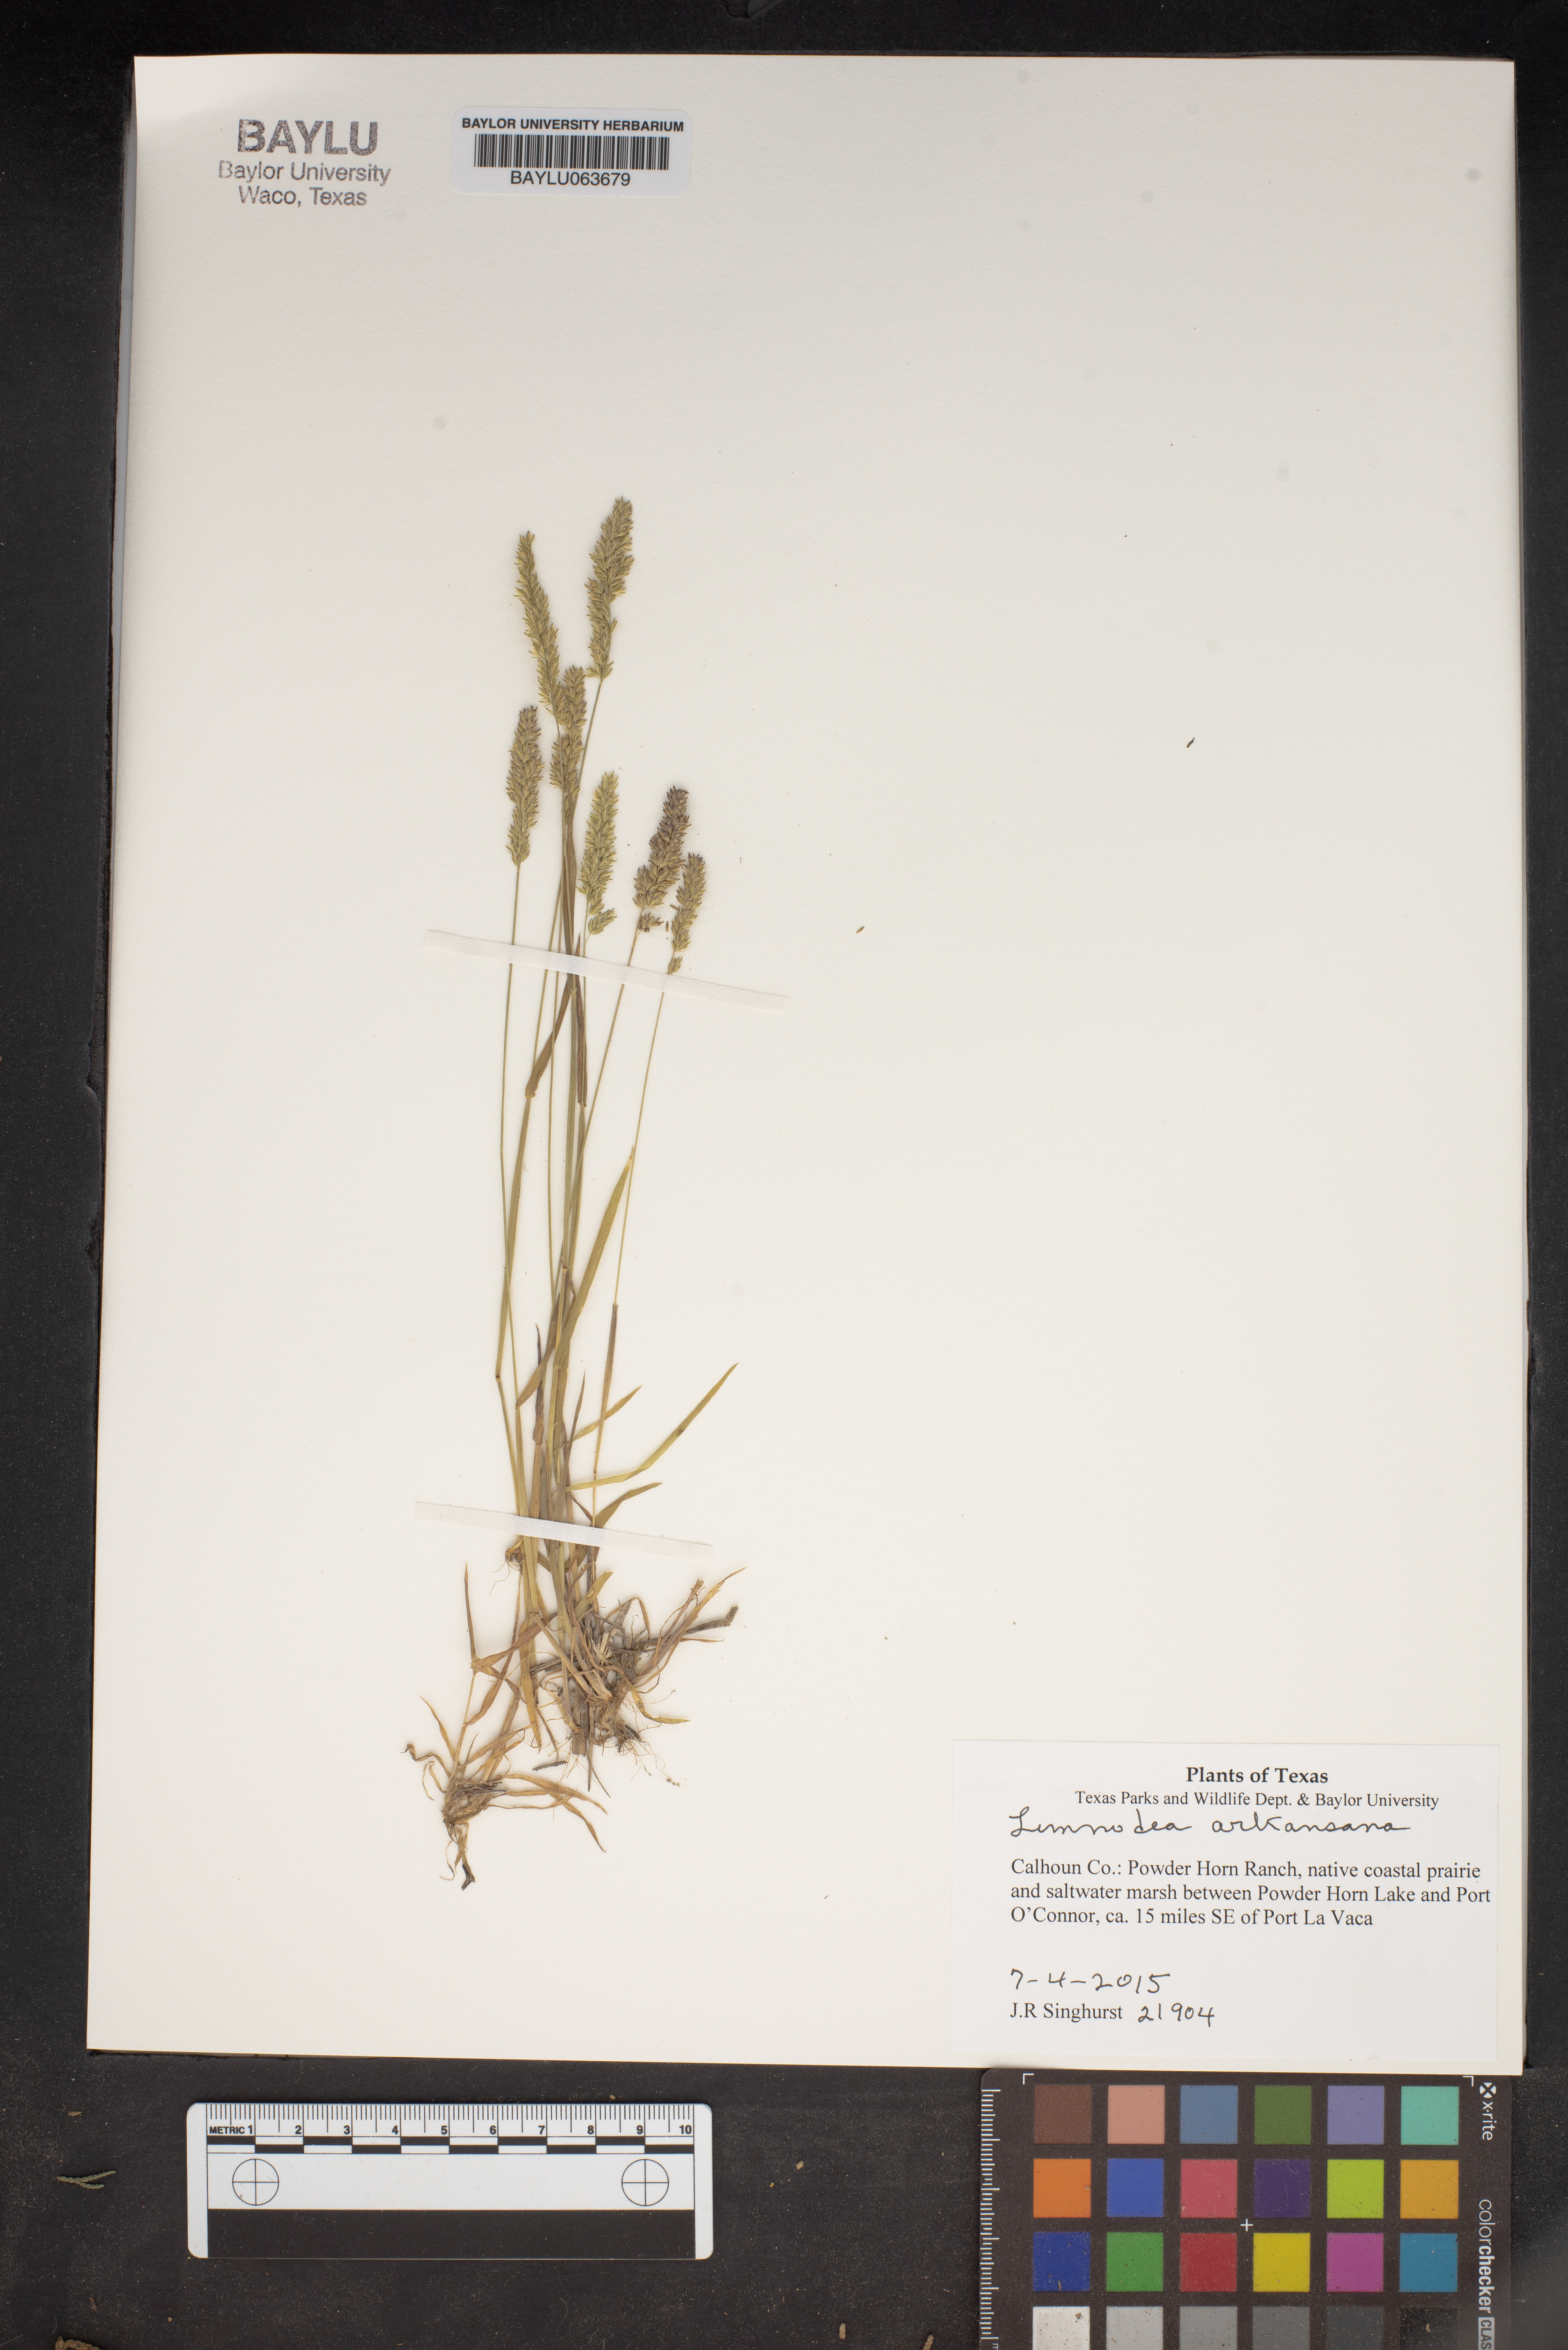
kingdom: Plantae
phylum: Tracheophyta
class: Liliopsida
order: Poales
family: Poaceae
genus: Limnodea
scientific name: Limnodea arkansana
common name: Ozark-grass
